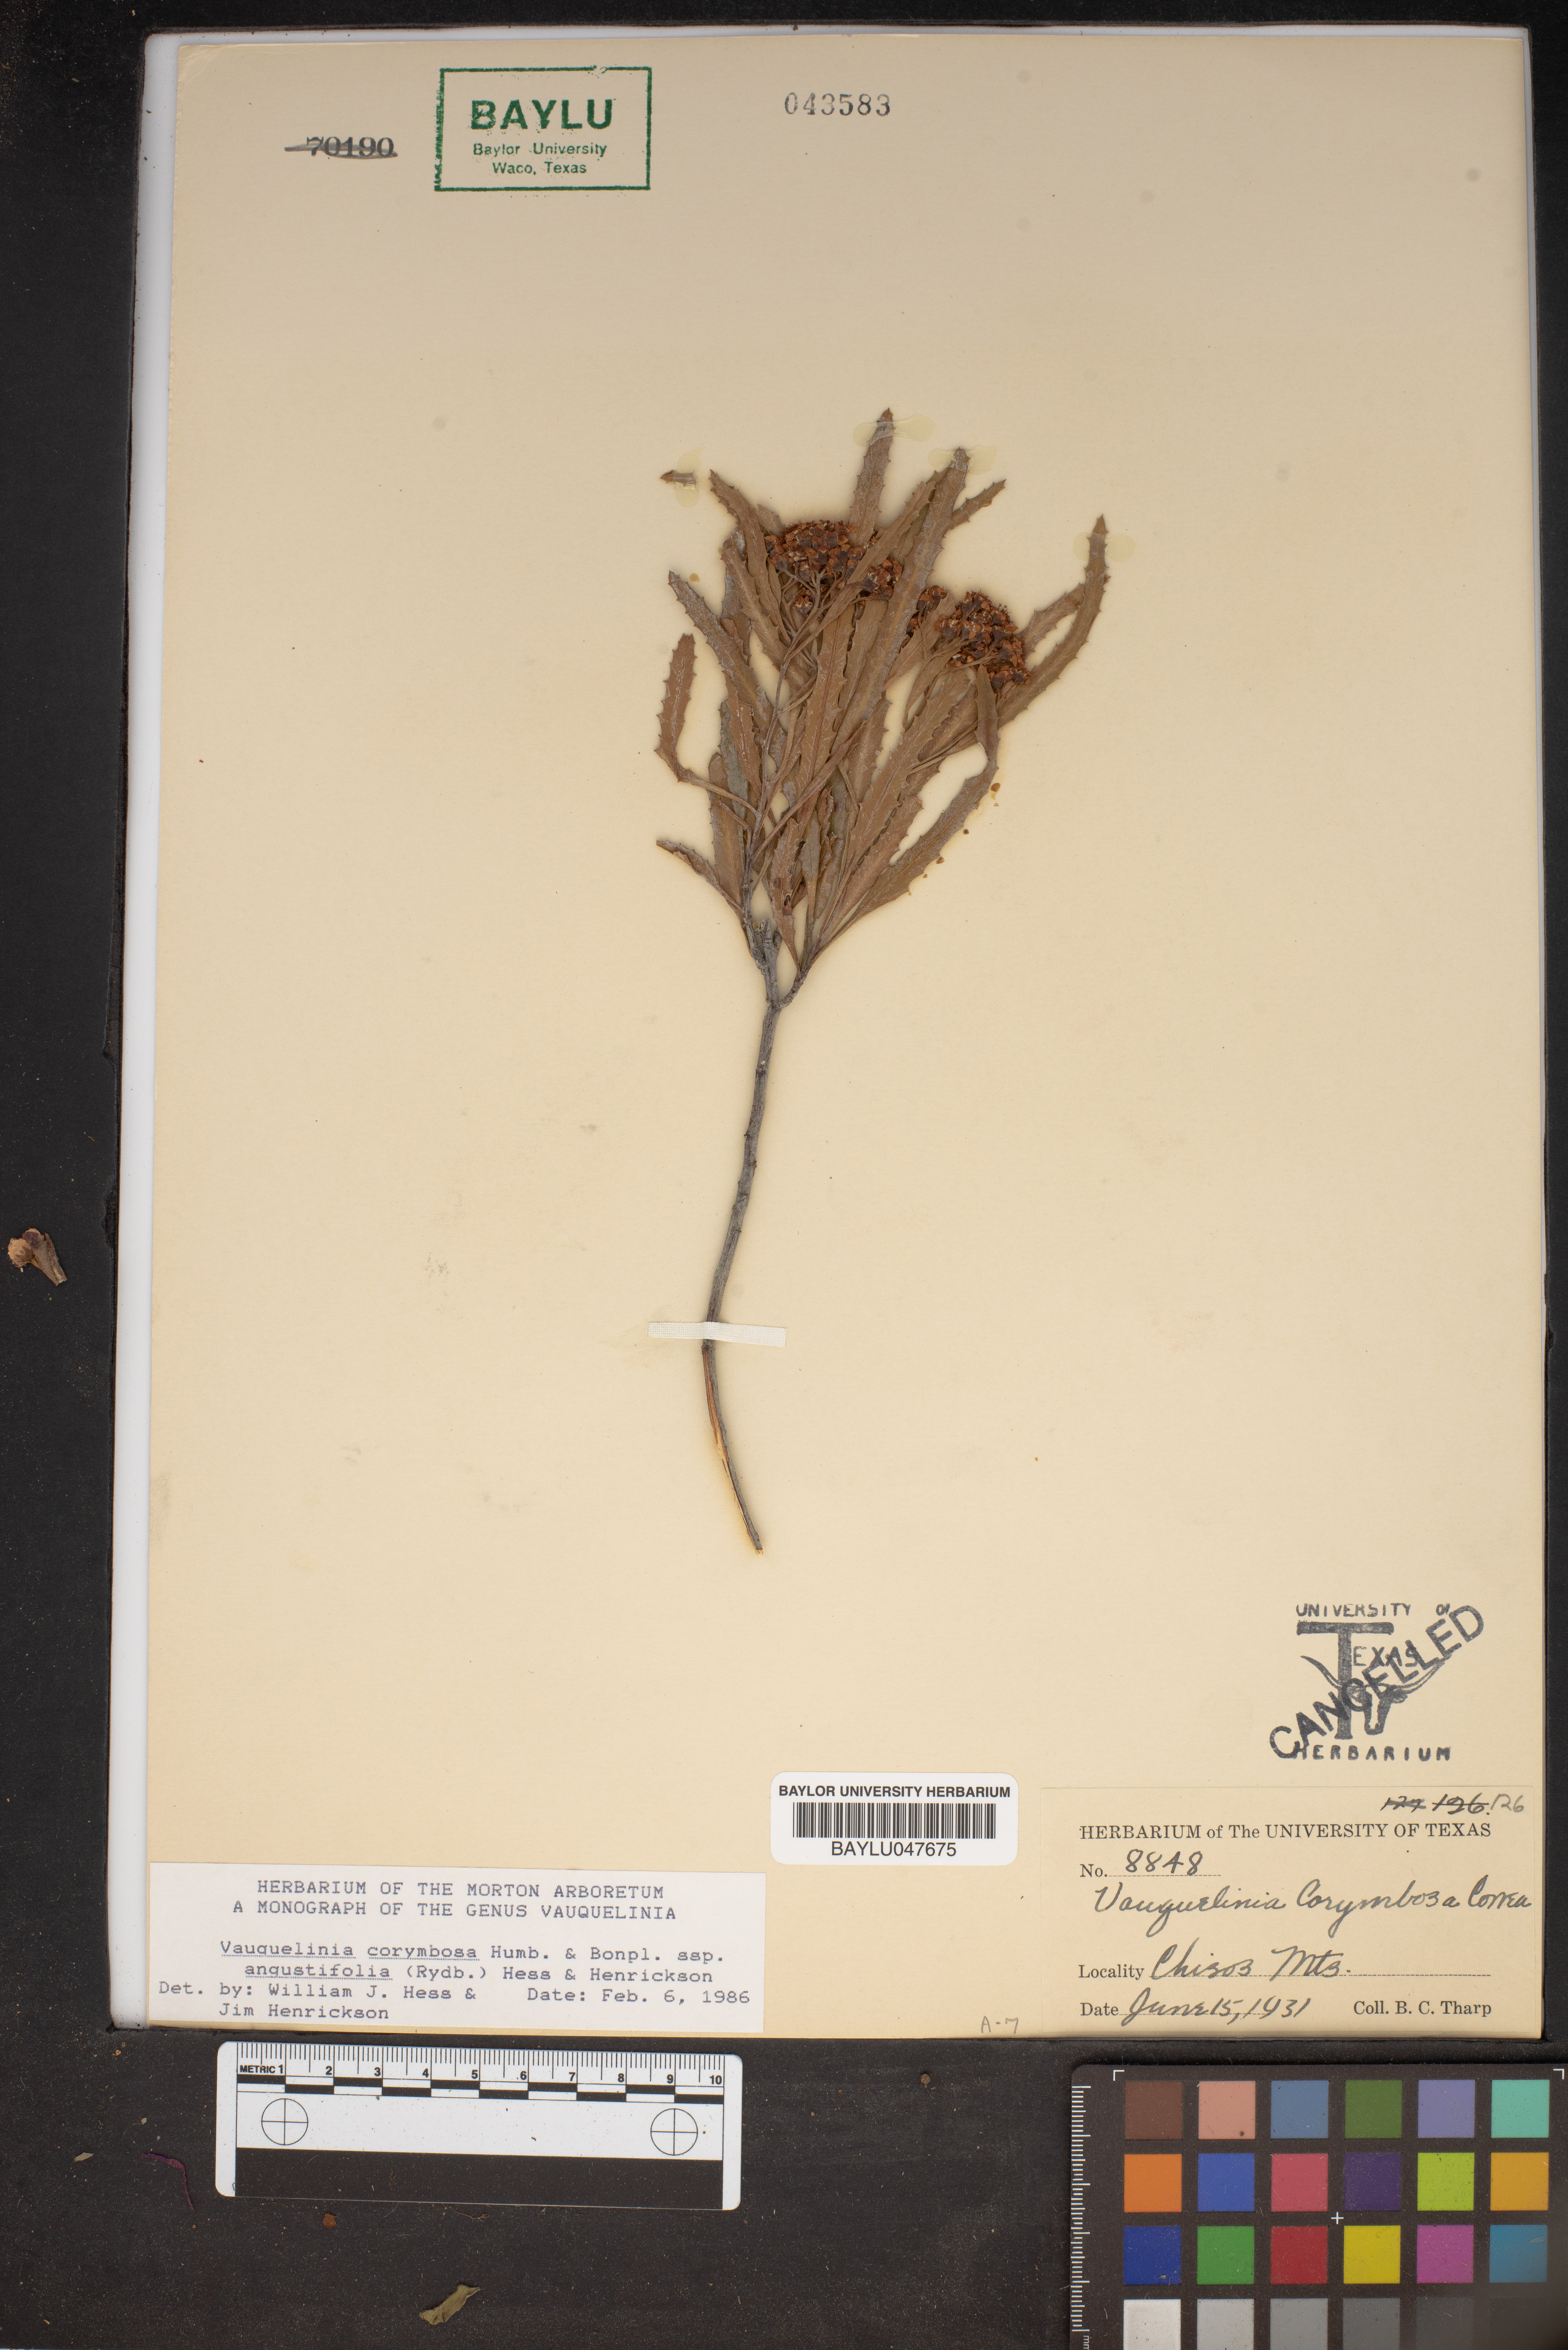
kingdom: Plantae
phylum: Tracheophyta
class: Magnoliopsida
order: Rosales
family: Rosaceae
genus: Vauquelinia
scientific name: Vauquelinia corymbosa
